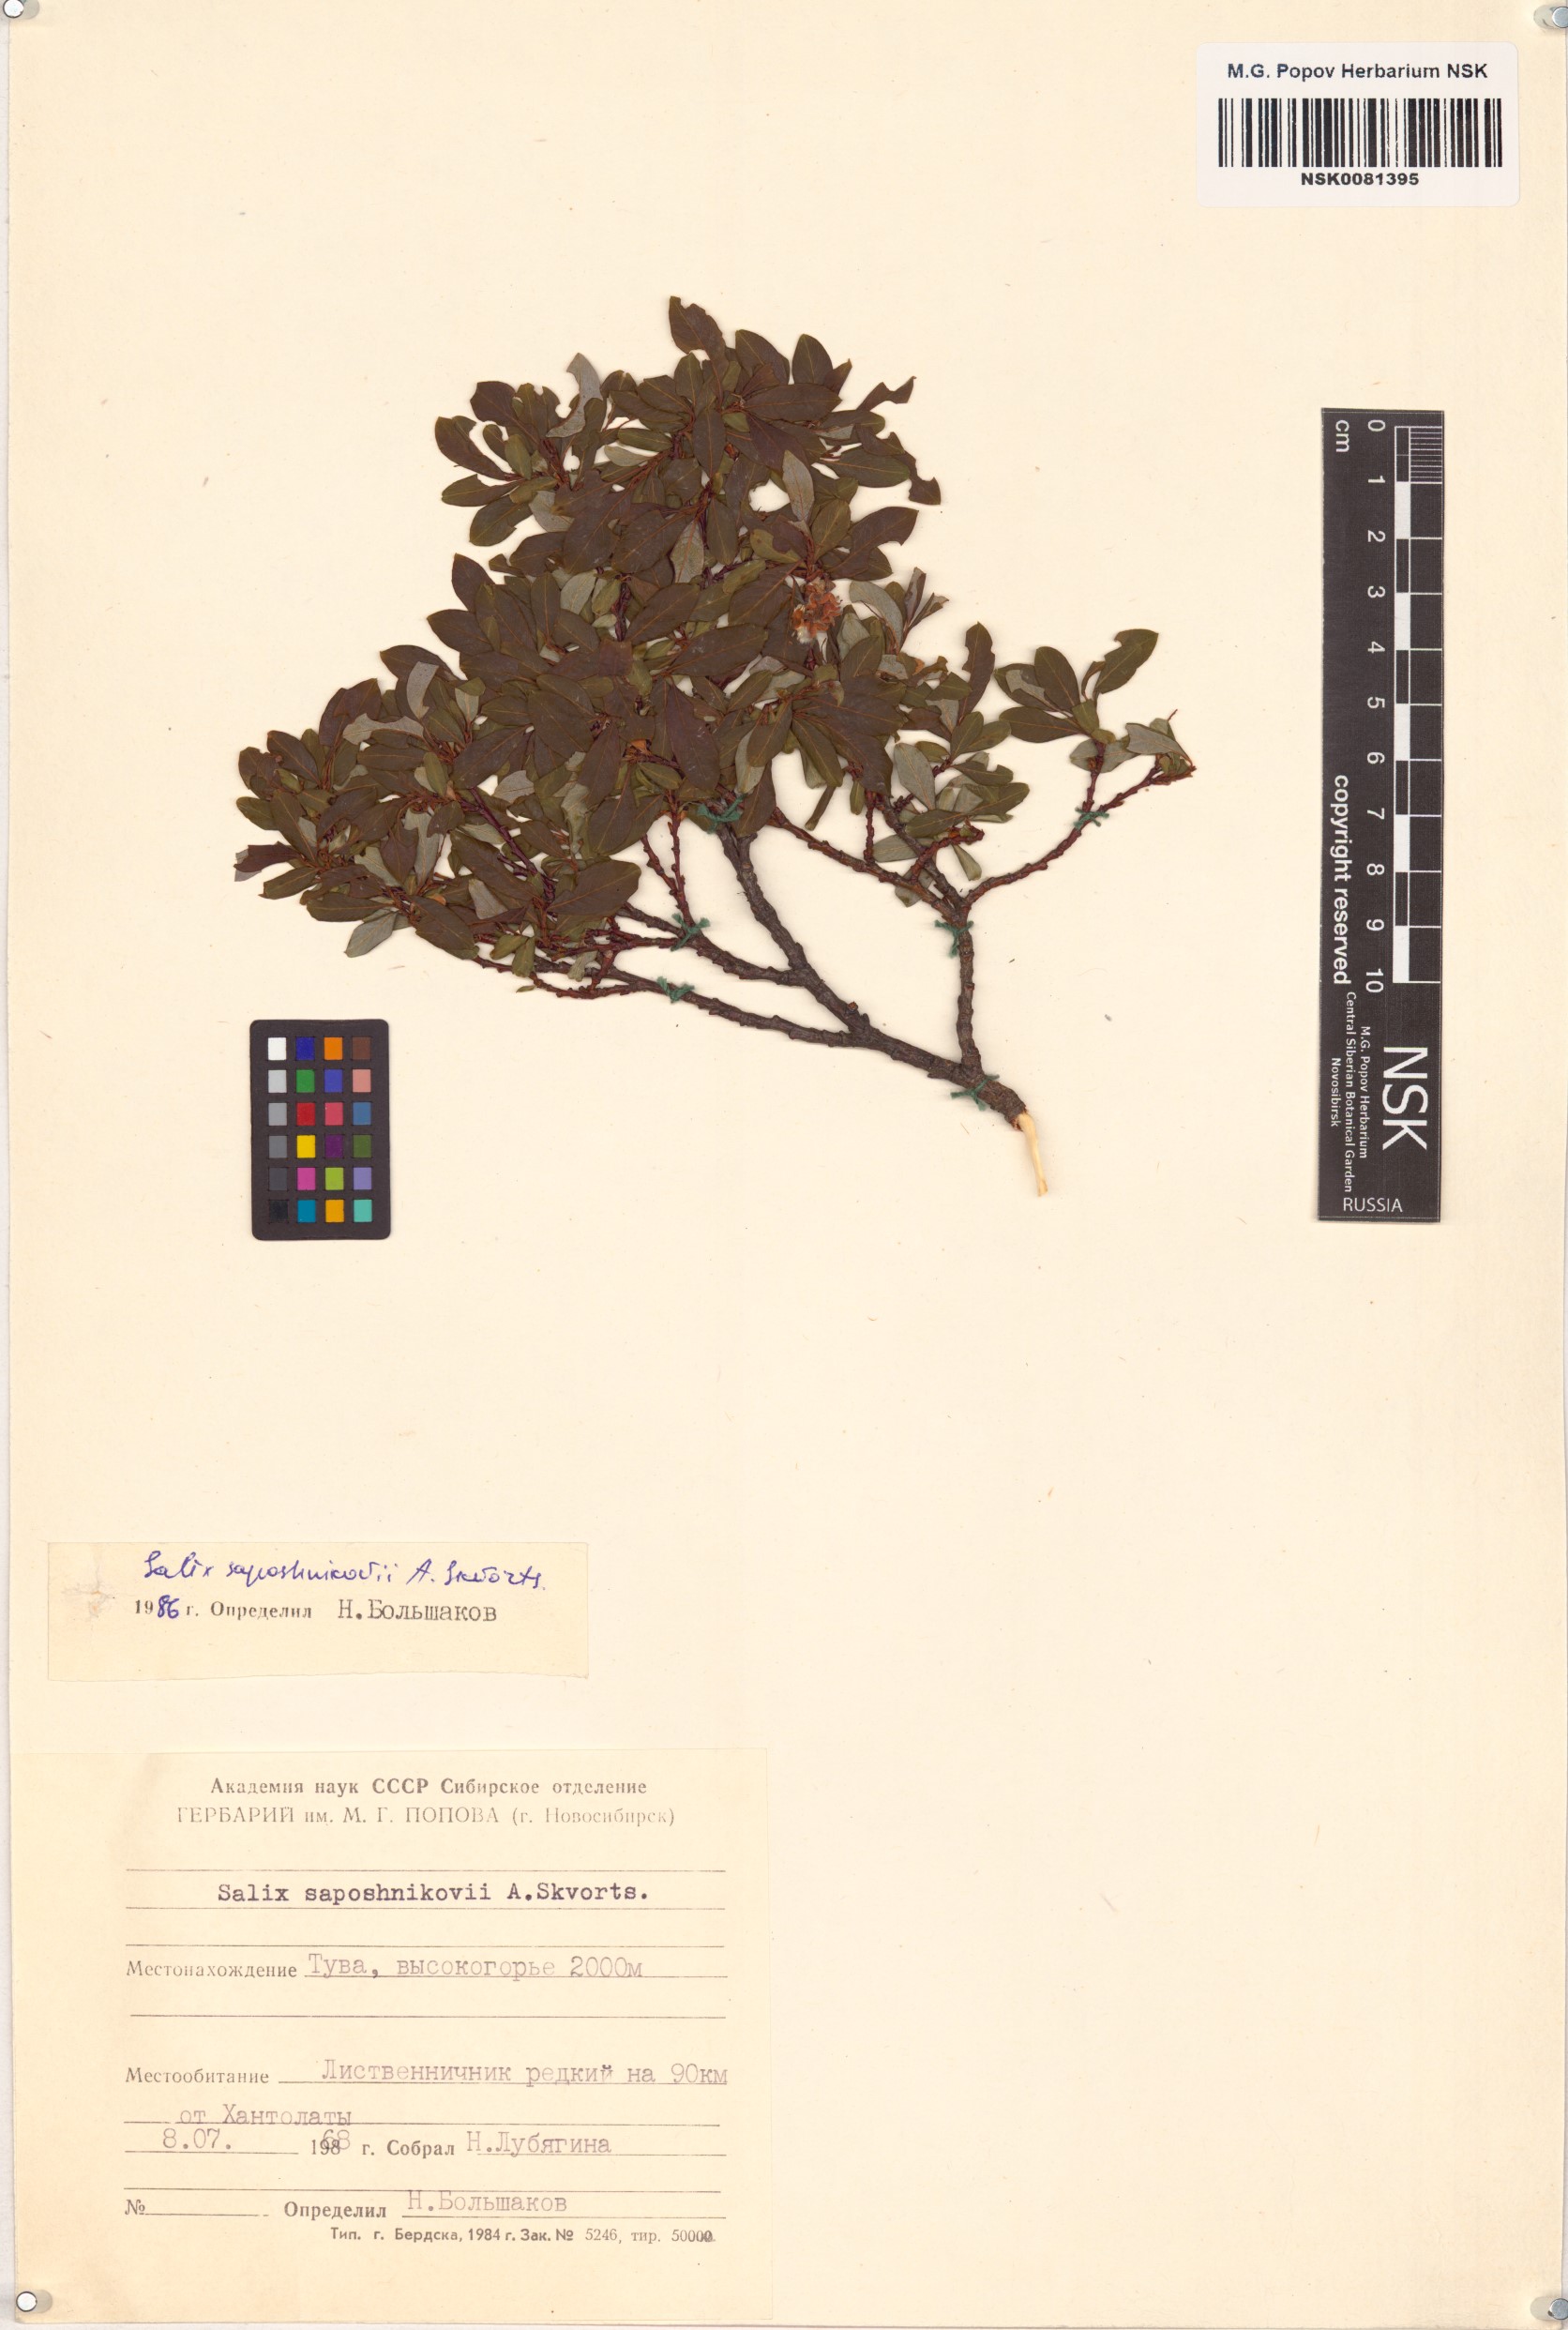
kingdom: Plantae
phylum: Tracheophyta
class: Magnoliopsida
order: Malpighiales
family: Salicaceae
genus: Salix
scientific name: Salix saposhnikovii
